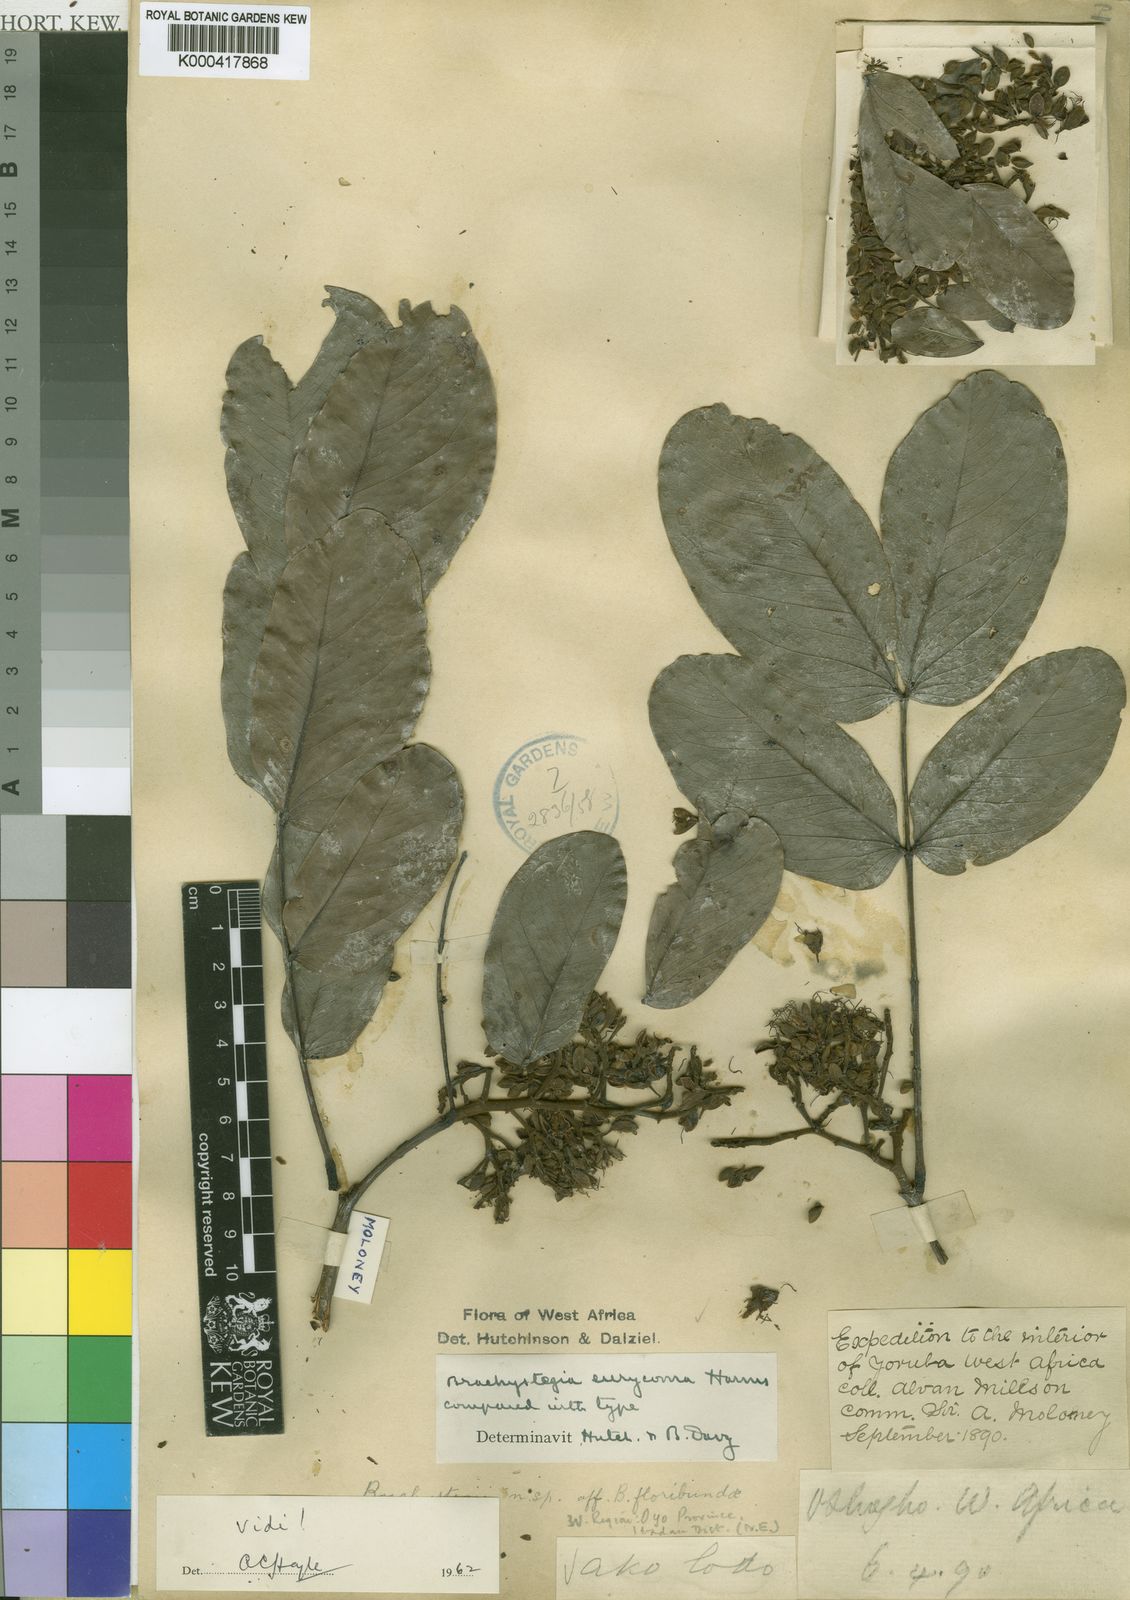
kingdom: Plantae
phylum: Tracheophyta
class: Magnoliopsida
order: Fabales
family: Fabaceae
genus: Brachystegia
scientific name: Brachystegia eurycoma
